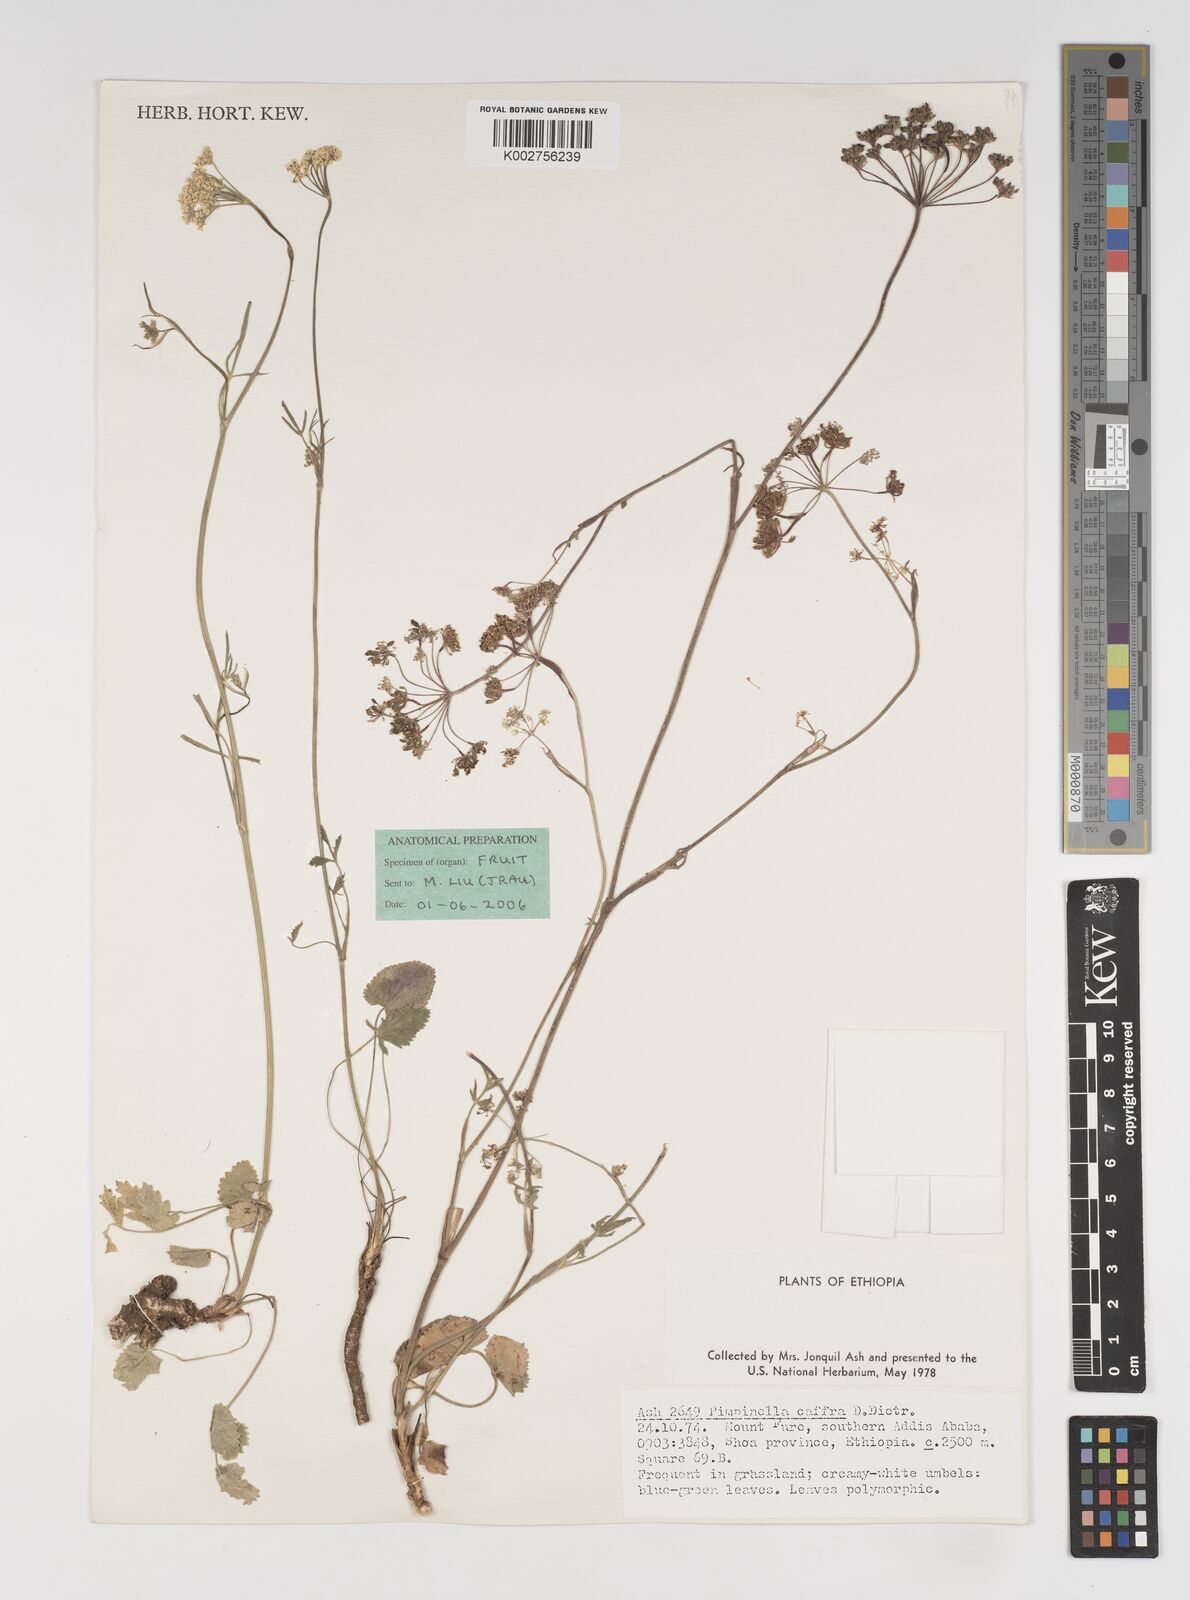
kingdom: Plantae
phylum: Tracheophyta
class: Magnoliopsida
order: Apiales
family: Apiaceae
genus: Pimpinella
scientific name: Pimpinella hirtella
